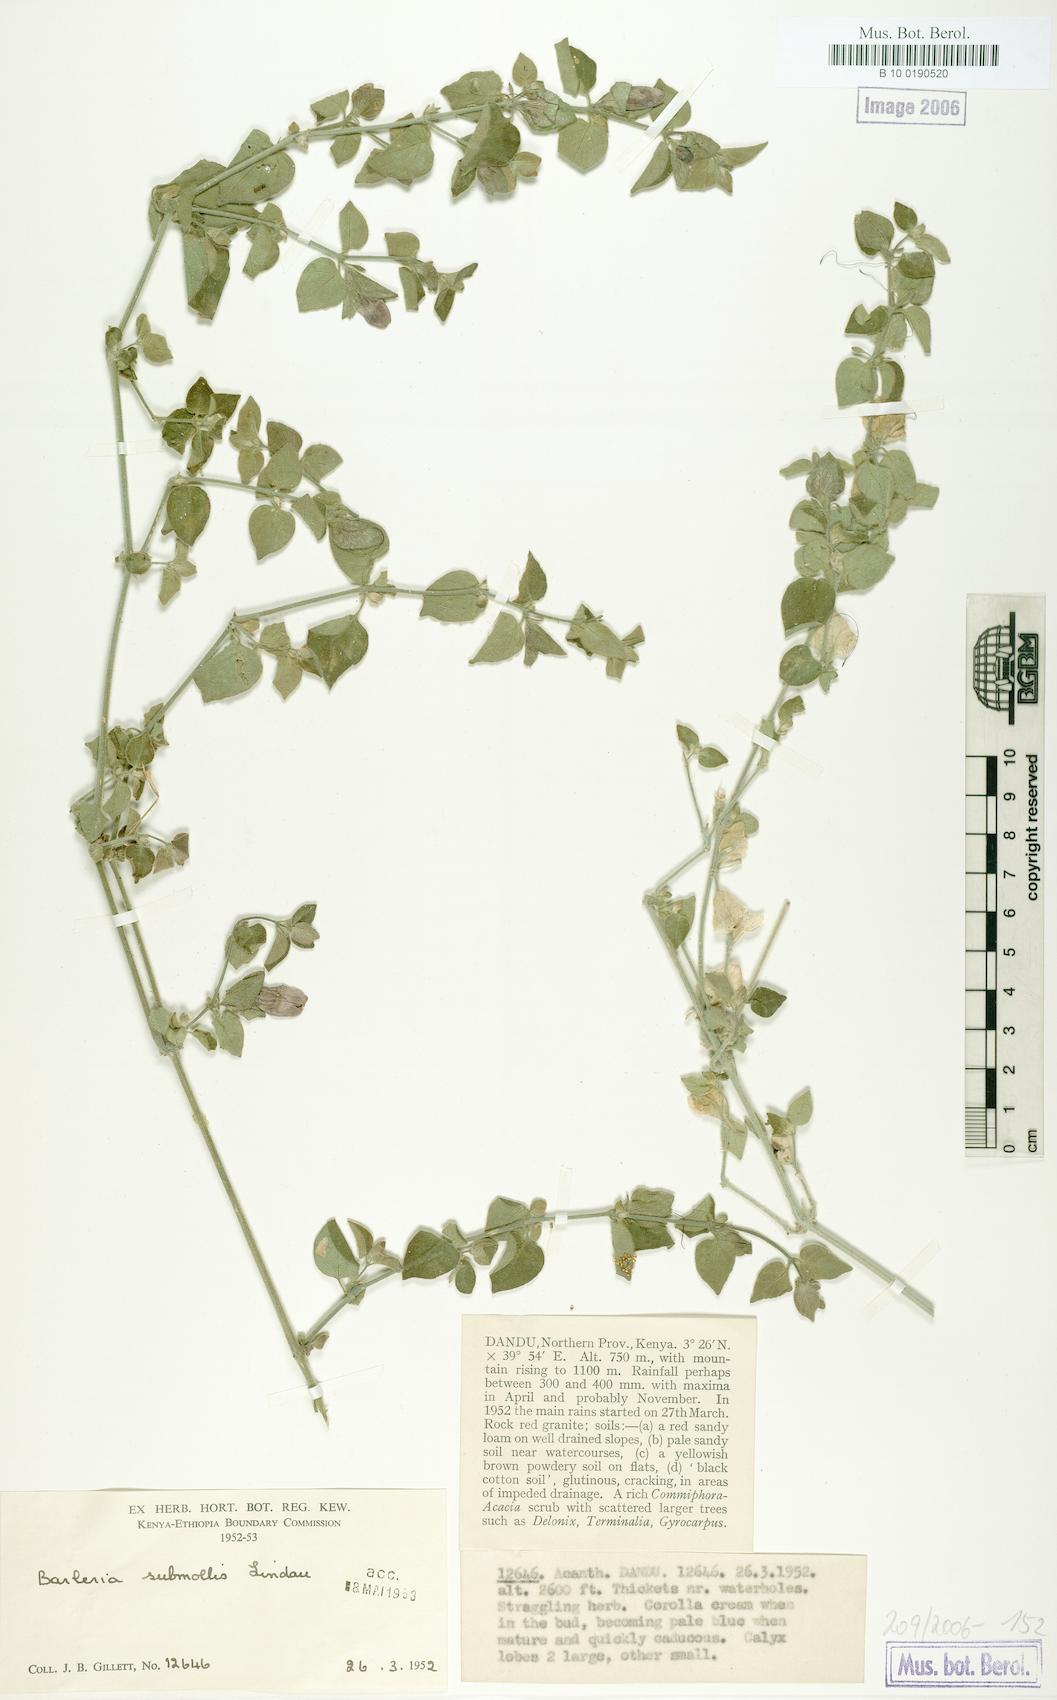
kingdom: Plantae
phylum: Tracheophyta
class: Magnoliopsida
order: Lamiales
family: Acanthaceae
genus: Barleria
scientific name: Barleria submollis
